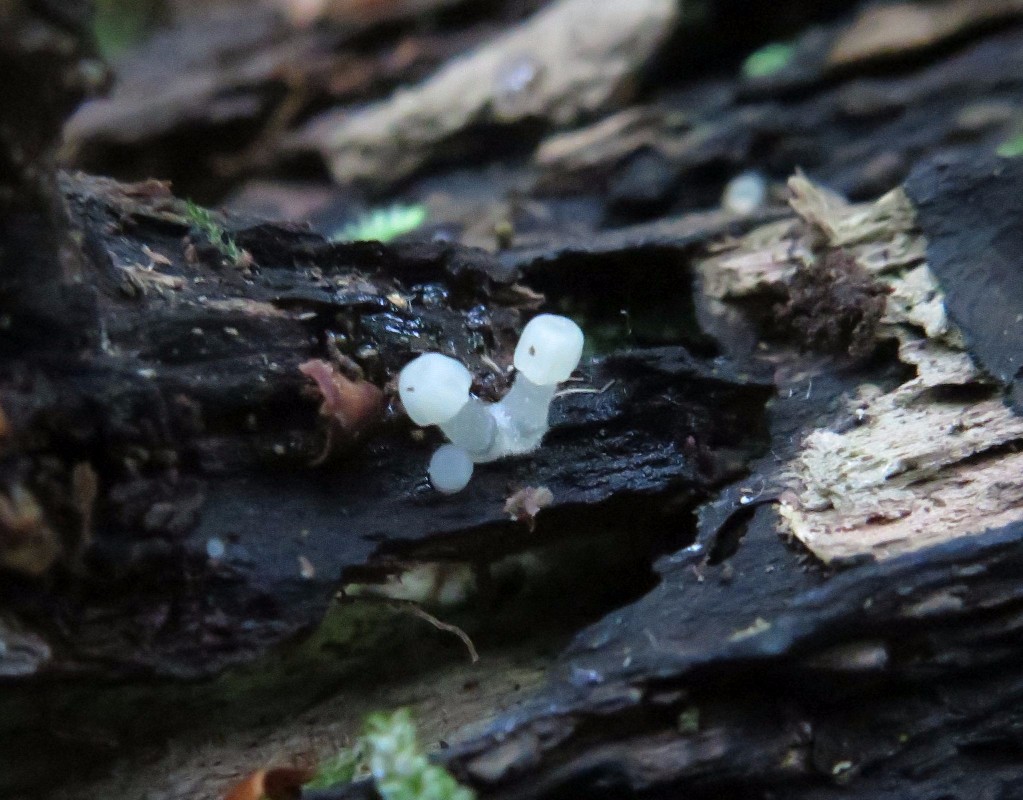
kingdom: Fungi
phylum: Basidiomycota
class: Agaricomycetes
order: Agaricales
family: Tricholomataceae
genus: Delicatula
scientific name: Delicatula integrella
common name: slørhuesvamp
